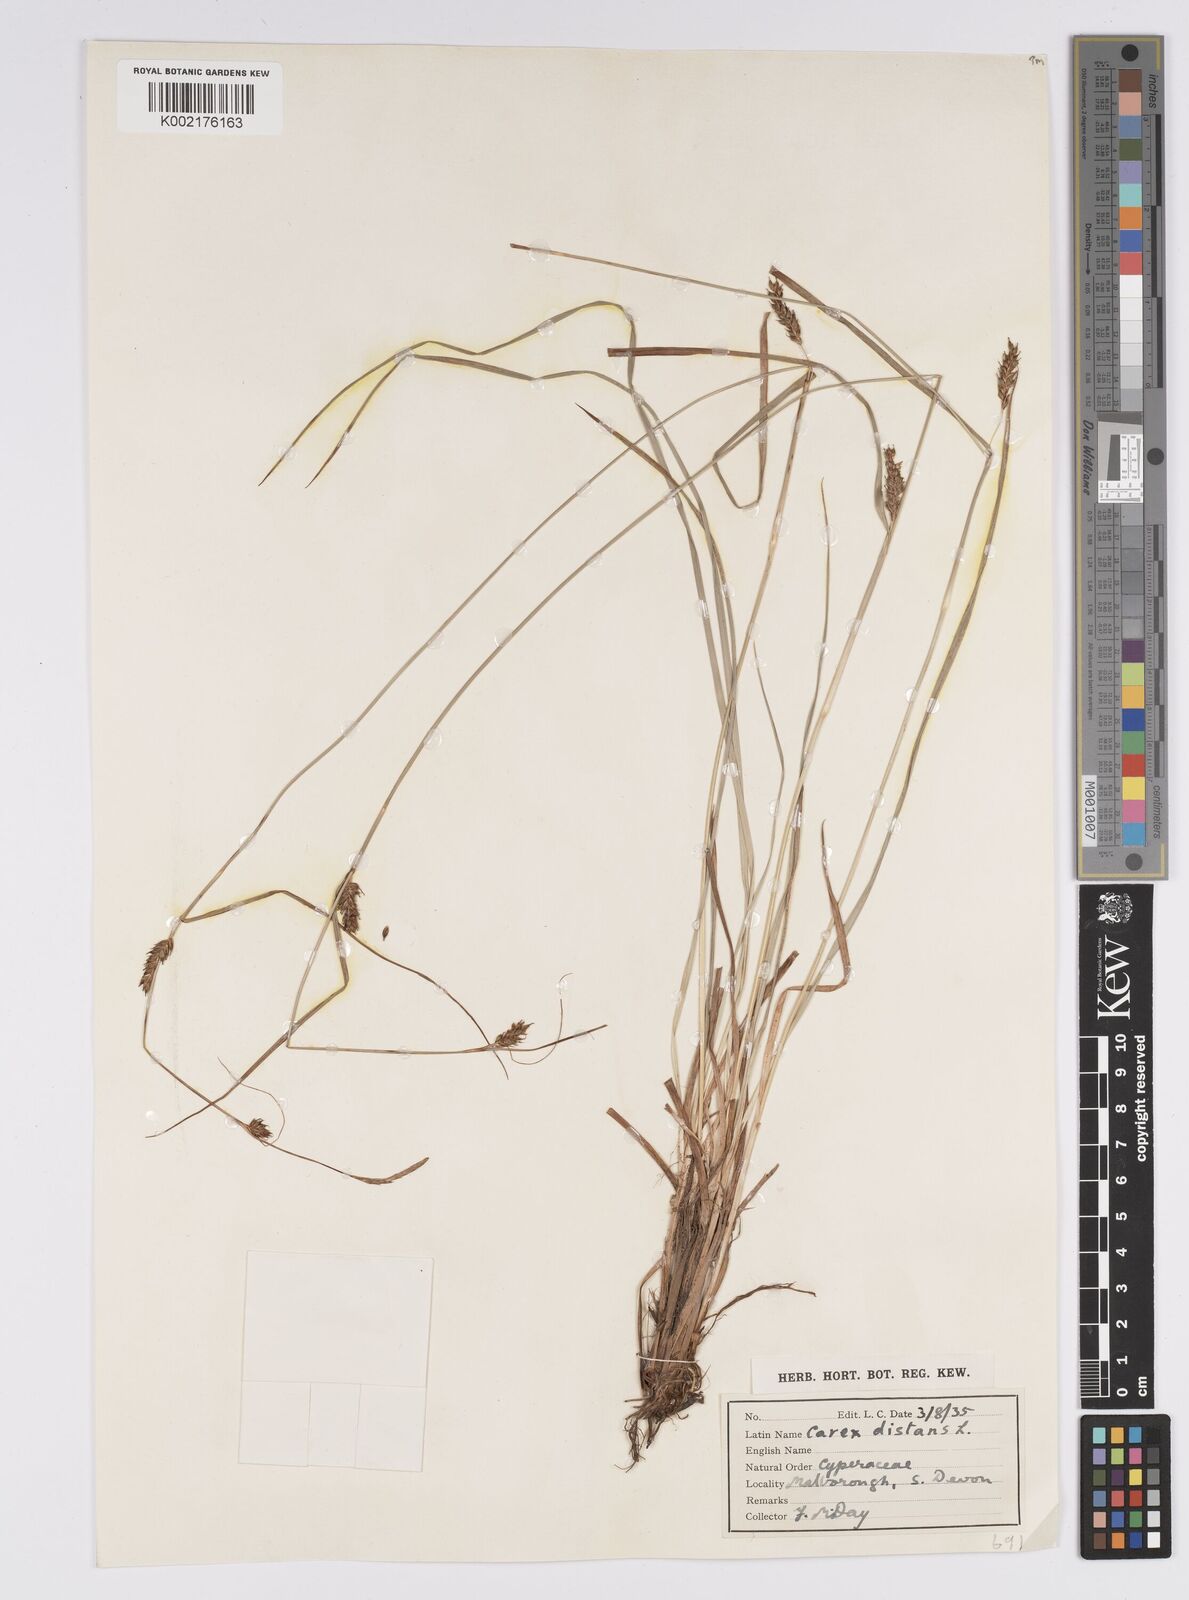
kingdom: Plantae
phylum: Tracheophyta
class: Liliopsida
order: Poales
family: Cyperaceae
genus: Carex
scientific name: Carex distans
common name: Distant sedge
